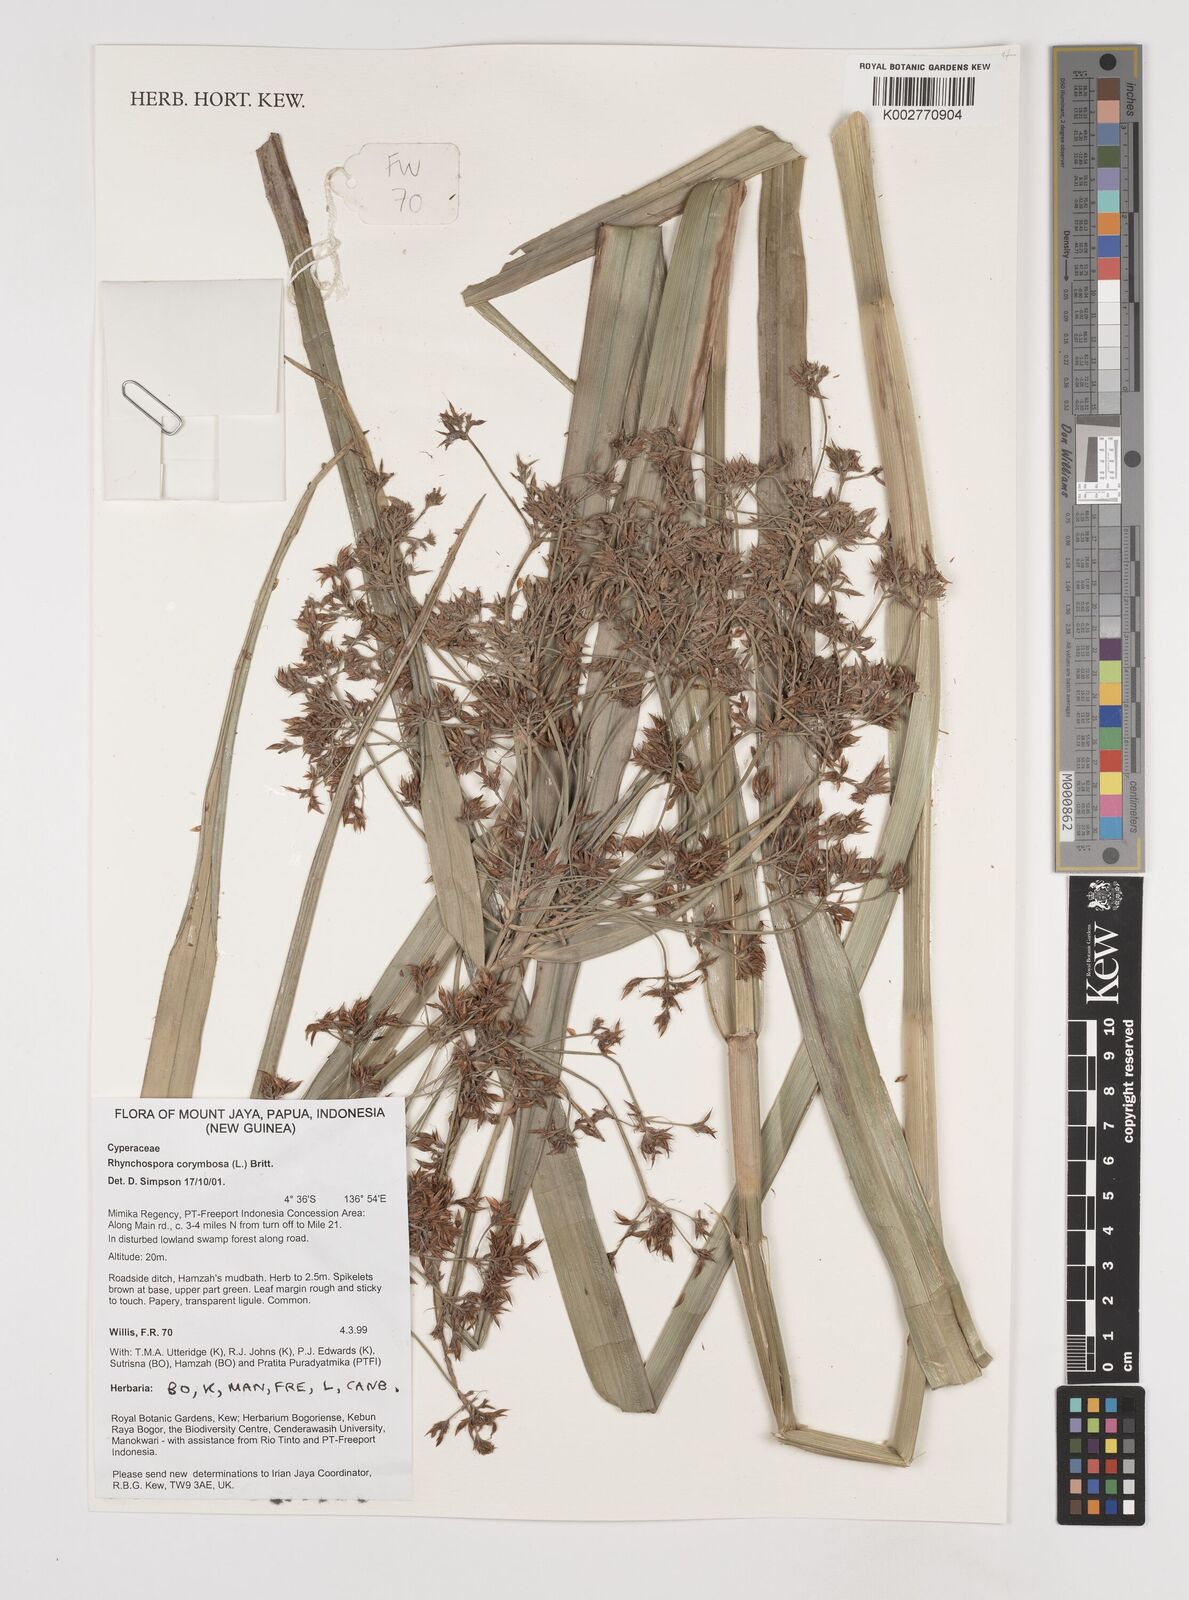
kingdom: Plantae
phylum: Tracheophyta
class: Liliopsida
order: Poales
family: Cyperaceae
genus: Rhynchospora
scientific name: Rhynchospora corymbosa
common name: Golden beak sedge
